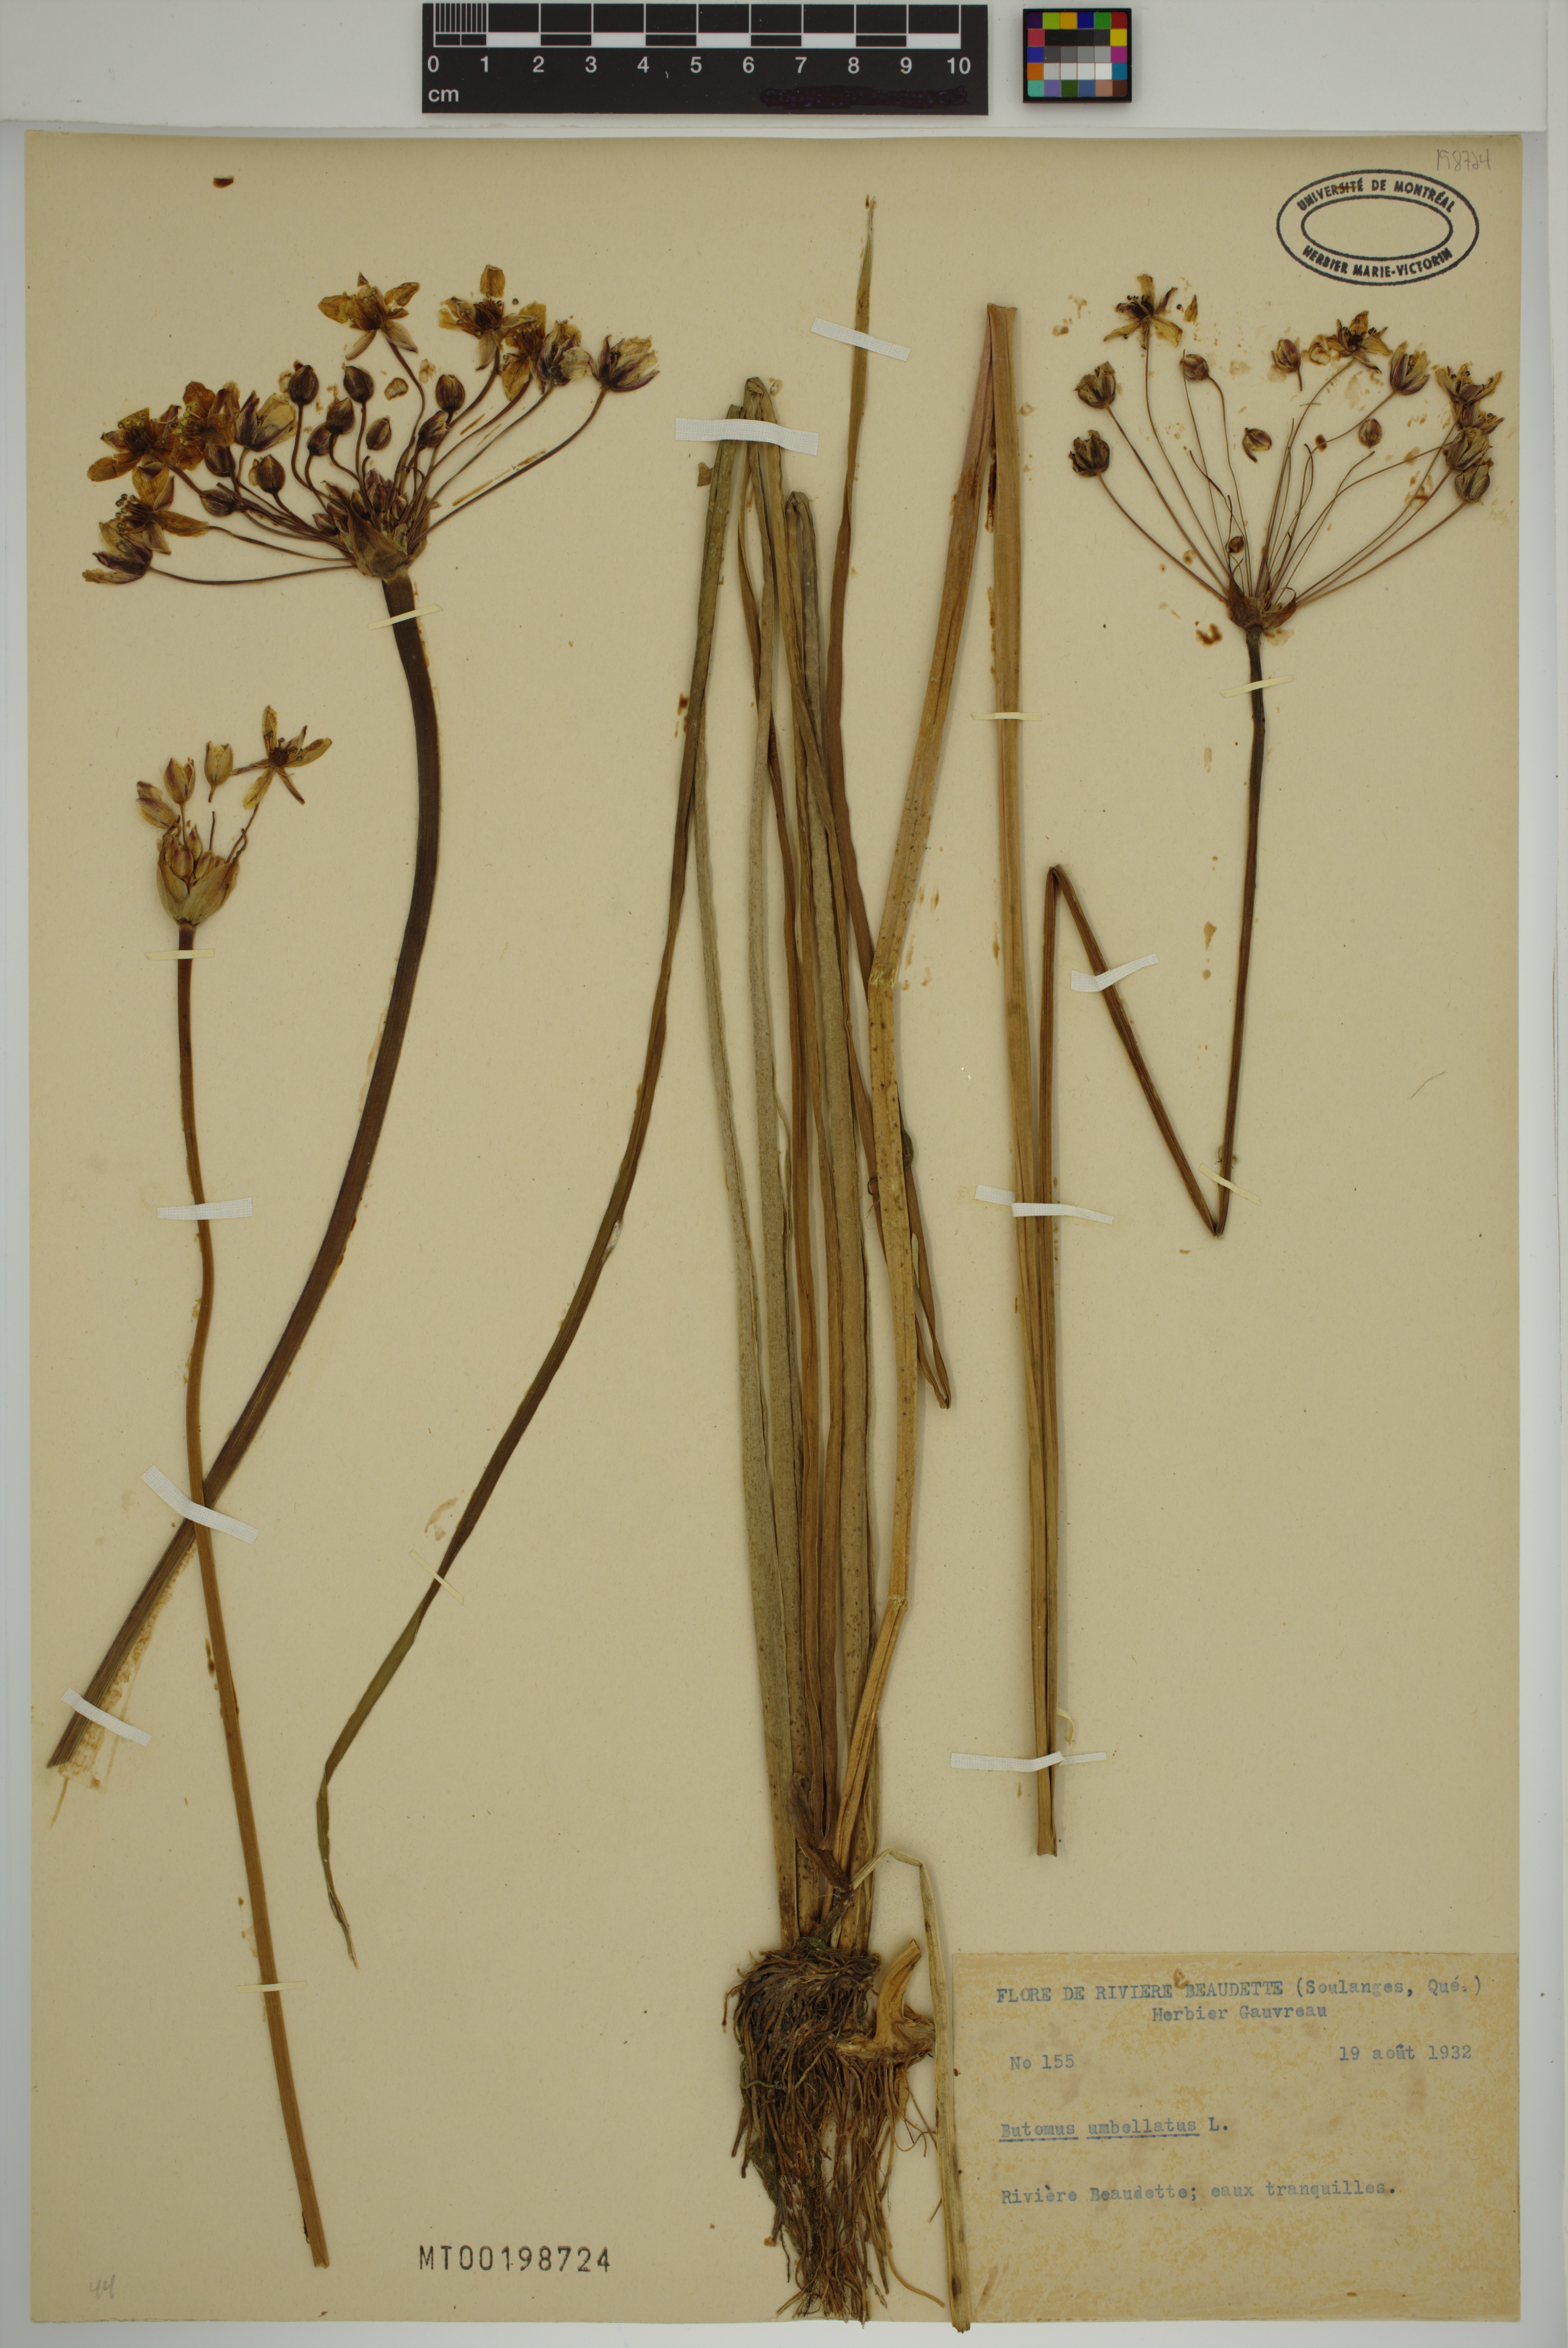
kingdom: Plantae
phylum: Tracheophyta
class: Liliopsida
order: Alismatales
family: Butomaceae
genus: Butomus
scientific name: Butomus umbellatus
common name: Flowering-rush
